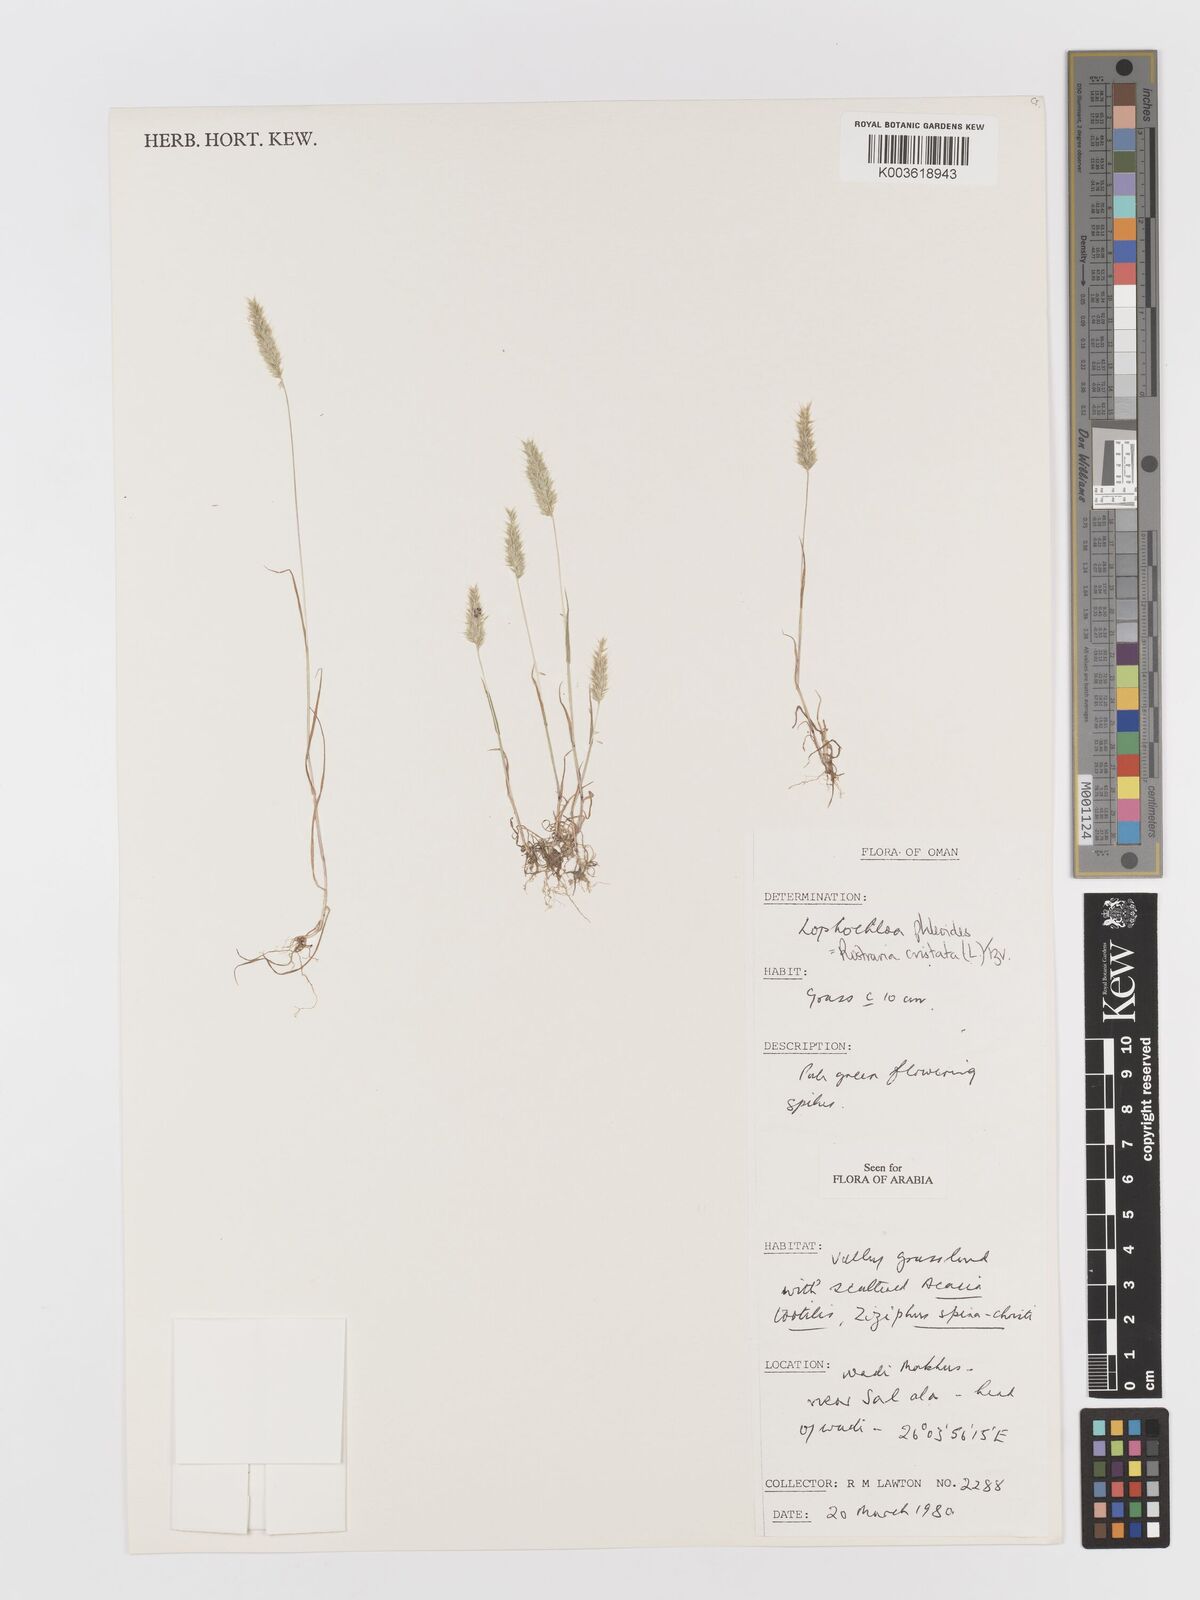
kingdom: Plantae
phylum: Tracheophyta
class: Liliopsida
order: Poales
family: Poaceae
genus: Rostraria
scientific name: Rostraria cristata
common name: Mediterranean hair-grass
